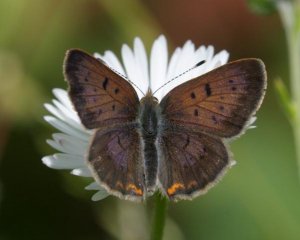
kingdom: Animalia
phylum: Arthropoda
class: Insecta
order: Lepidoptera
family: Lycaenidae
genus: Epidemia
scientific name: Epidemia dorcas
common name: Dorcas Copper
